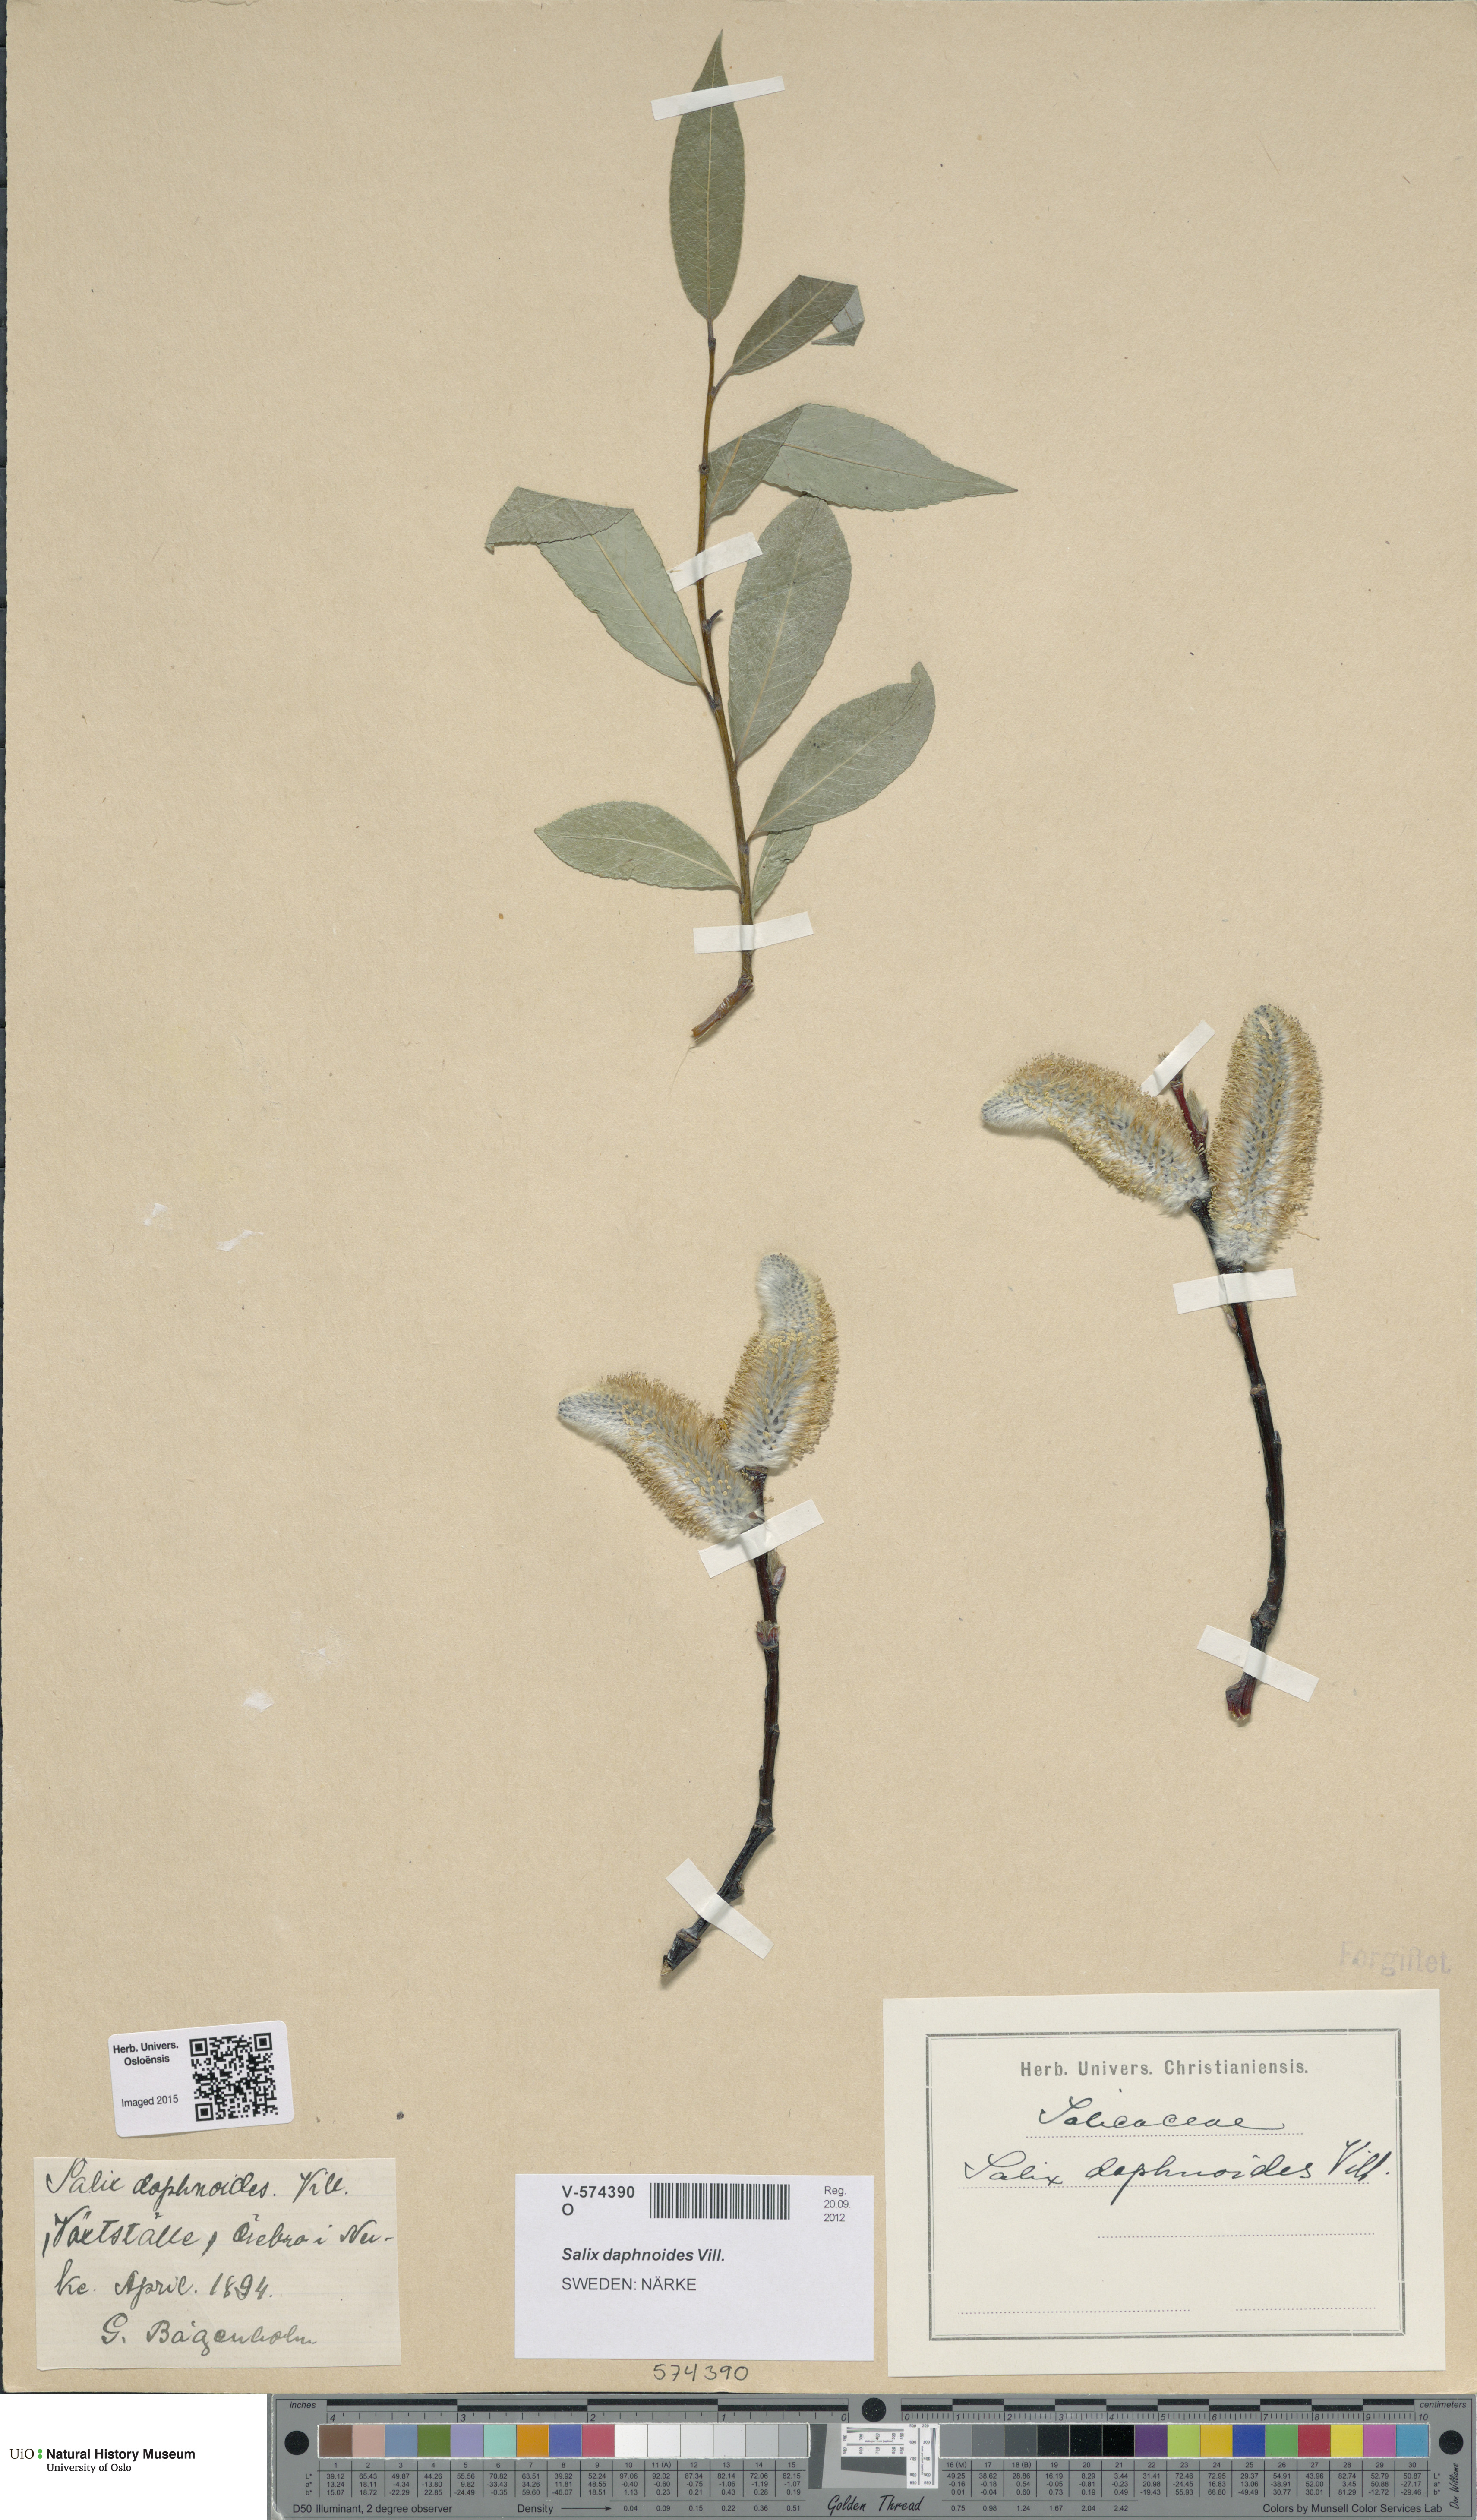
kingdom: Plantae
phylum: Tracheophyta
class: Magnoliopsida
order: Malpighiales
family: Salicaceae
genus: Salix
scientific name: Salix daphnoides
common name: European violet-willow
